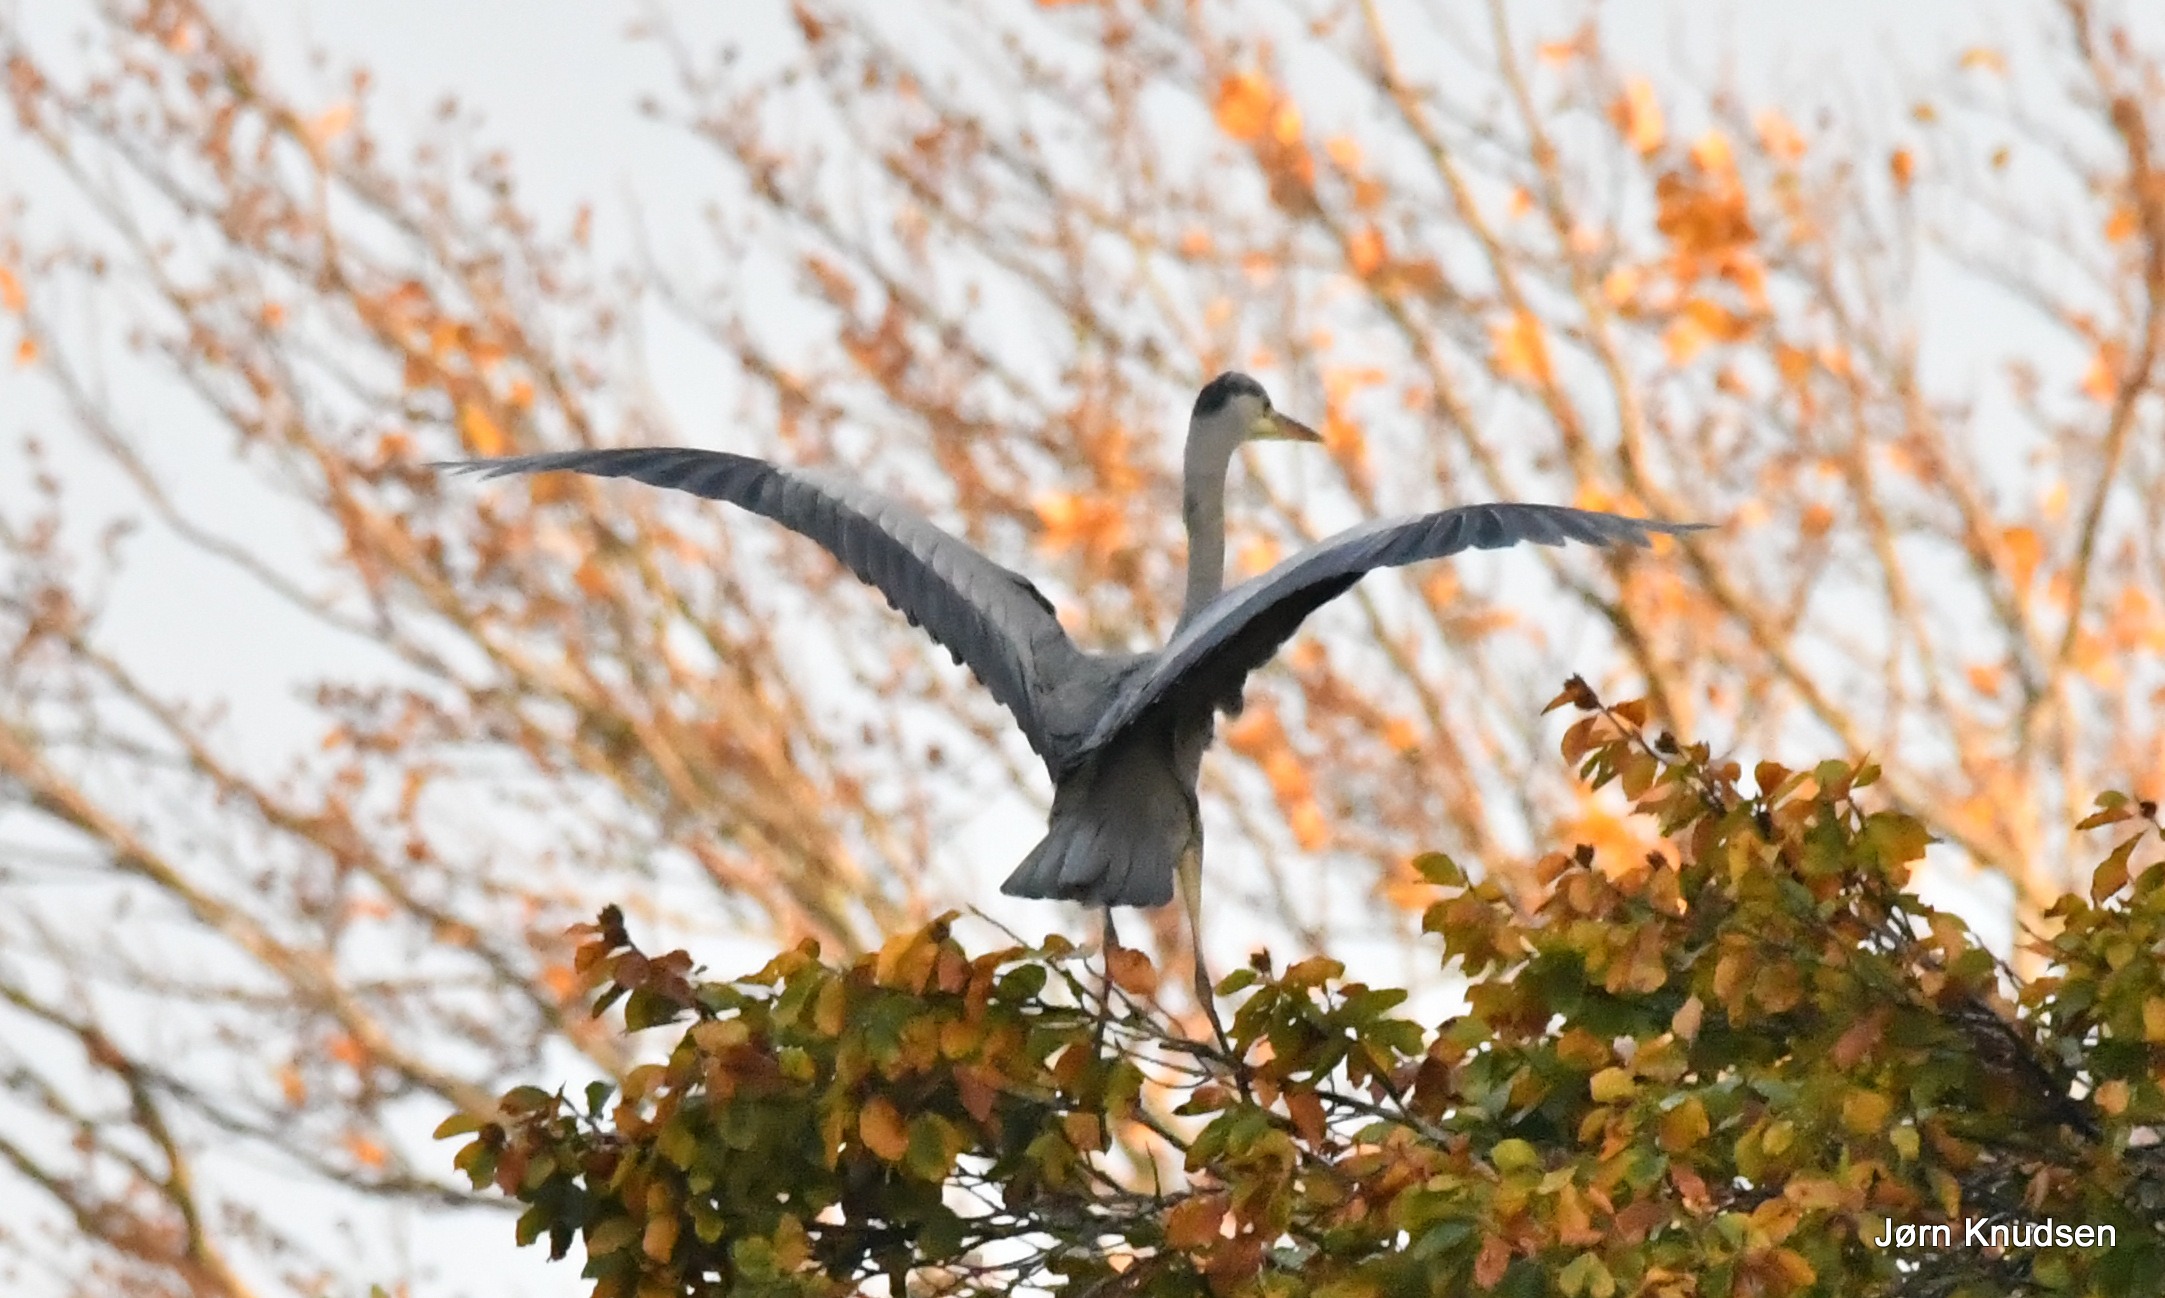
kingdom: Animalia
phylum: Chordata
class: Aves
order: Pelecaniformes
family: Ardeidae
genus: Ardea
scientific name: Ardea cinerea
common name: Fiskehejre
